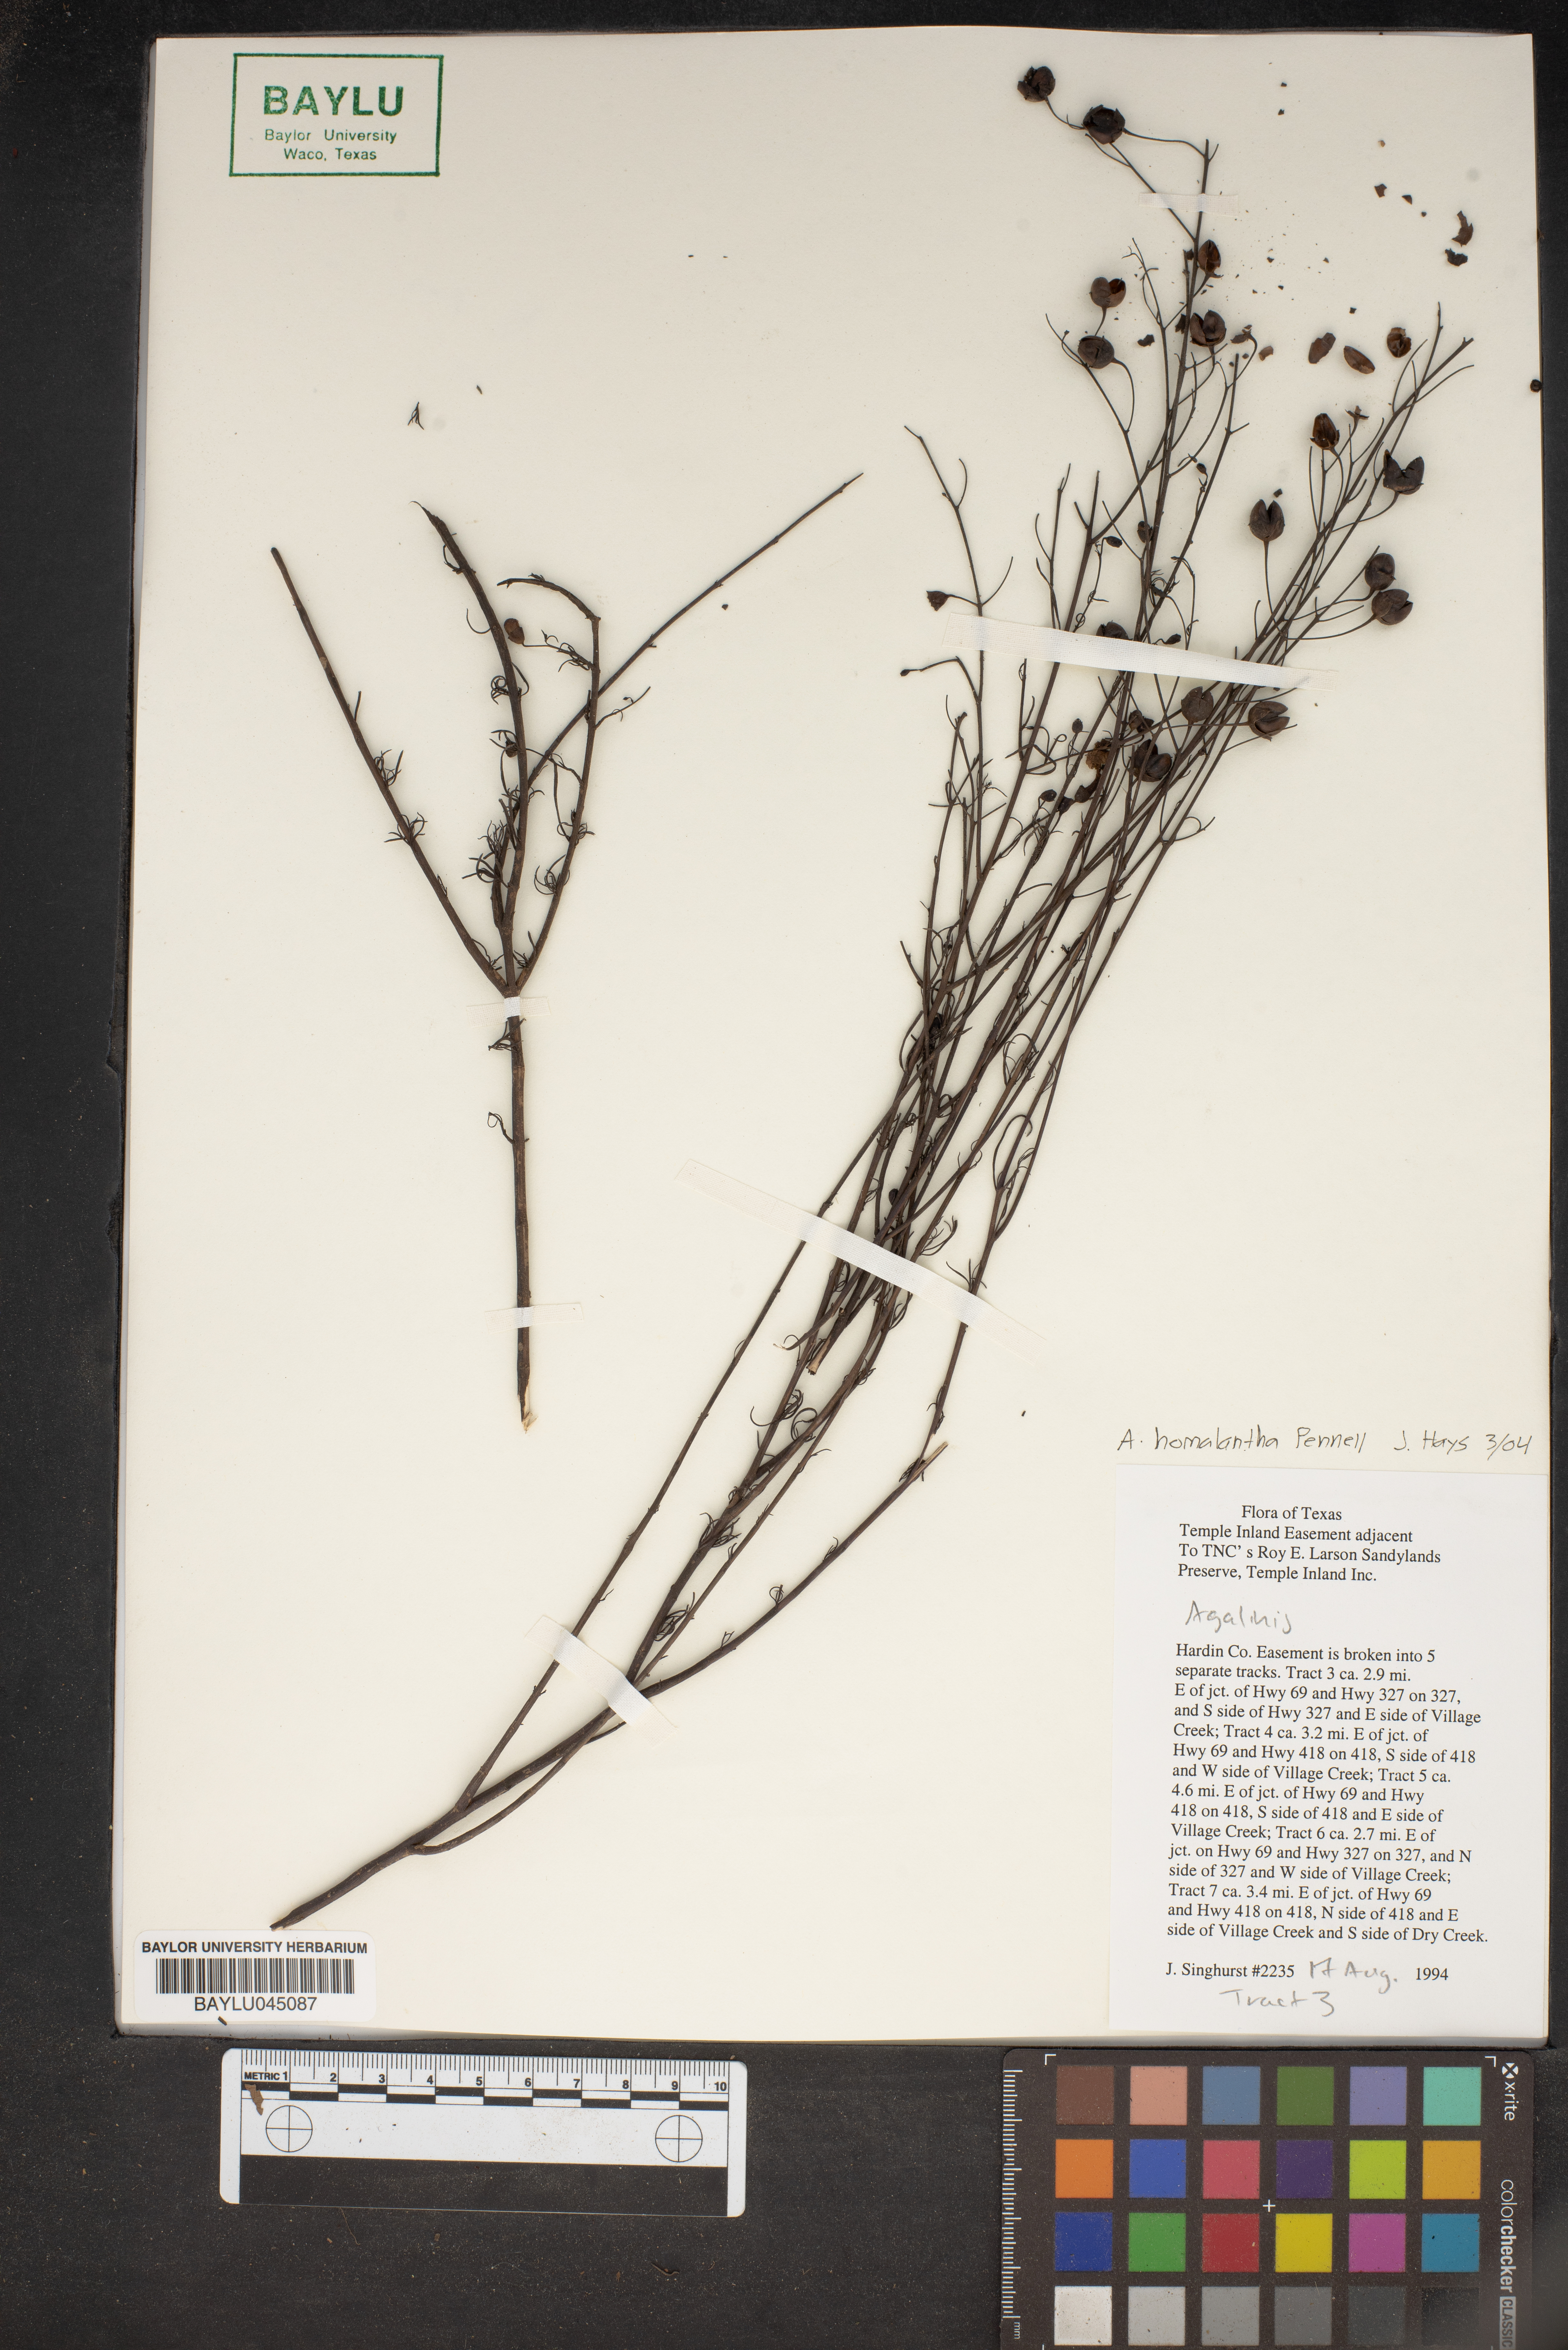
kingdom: Plantae
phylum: Tracheophyta
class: Magnoliopsida
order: Lamiales
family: Orobanchaceae
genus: Agalinis
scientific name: Agalinis
